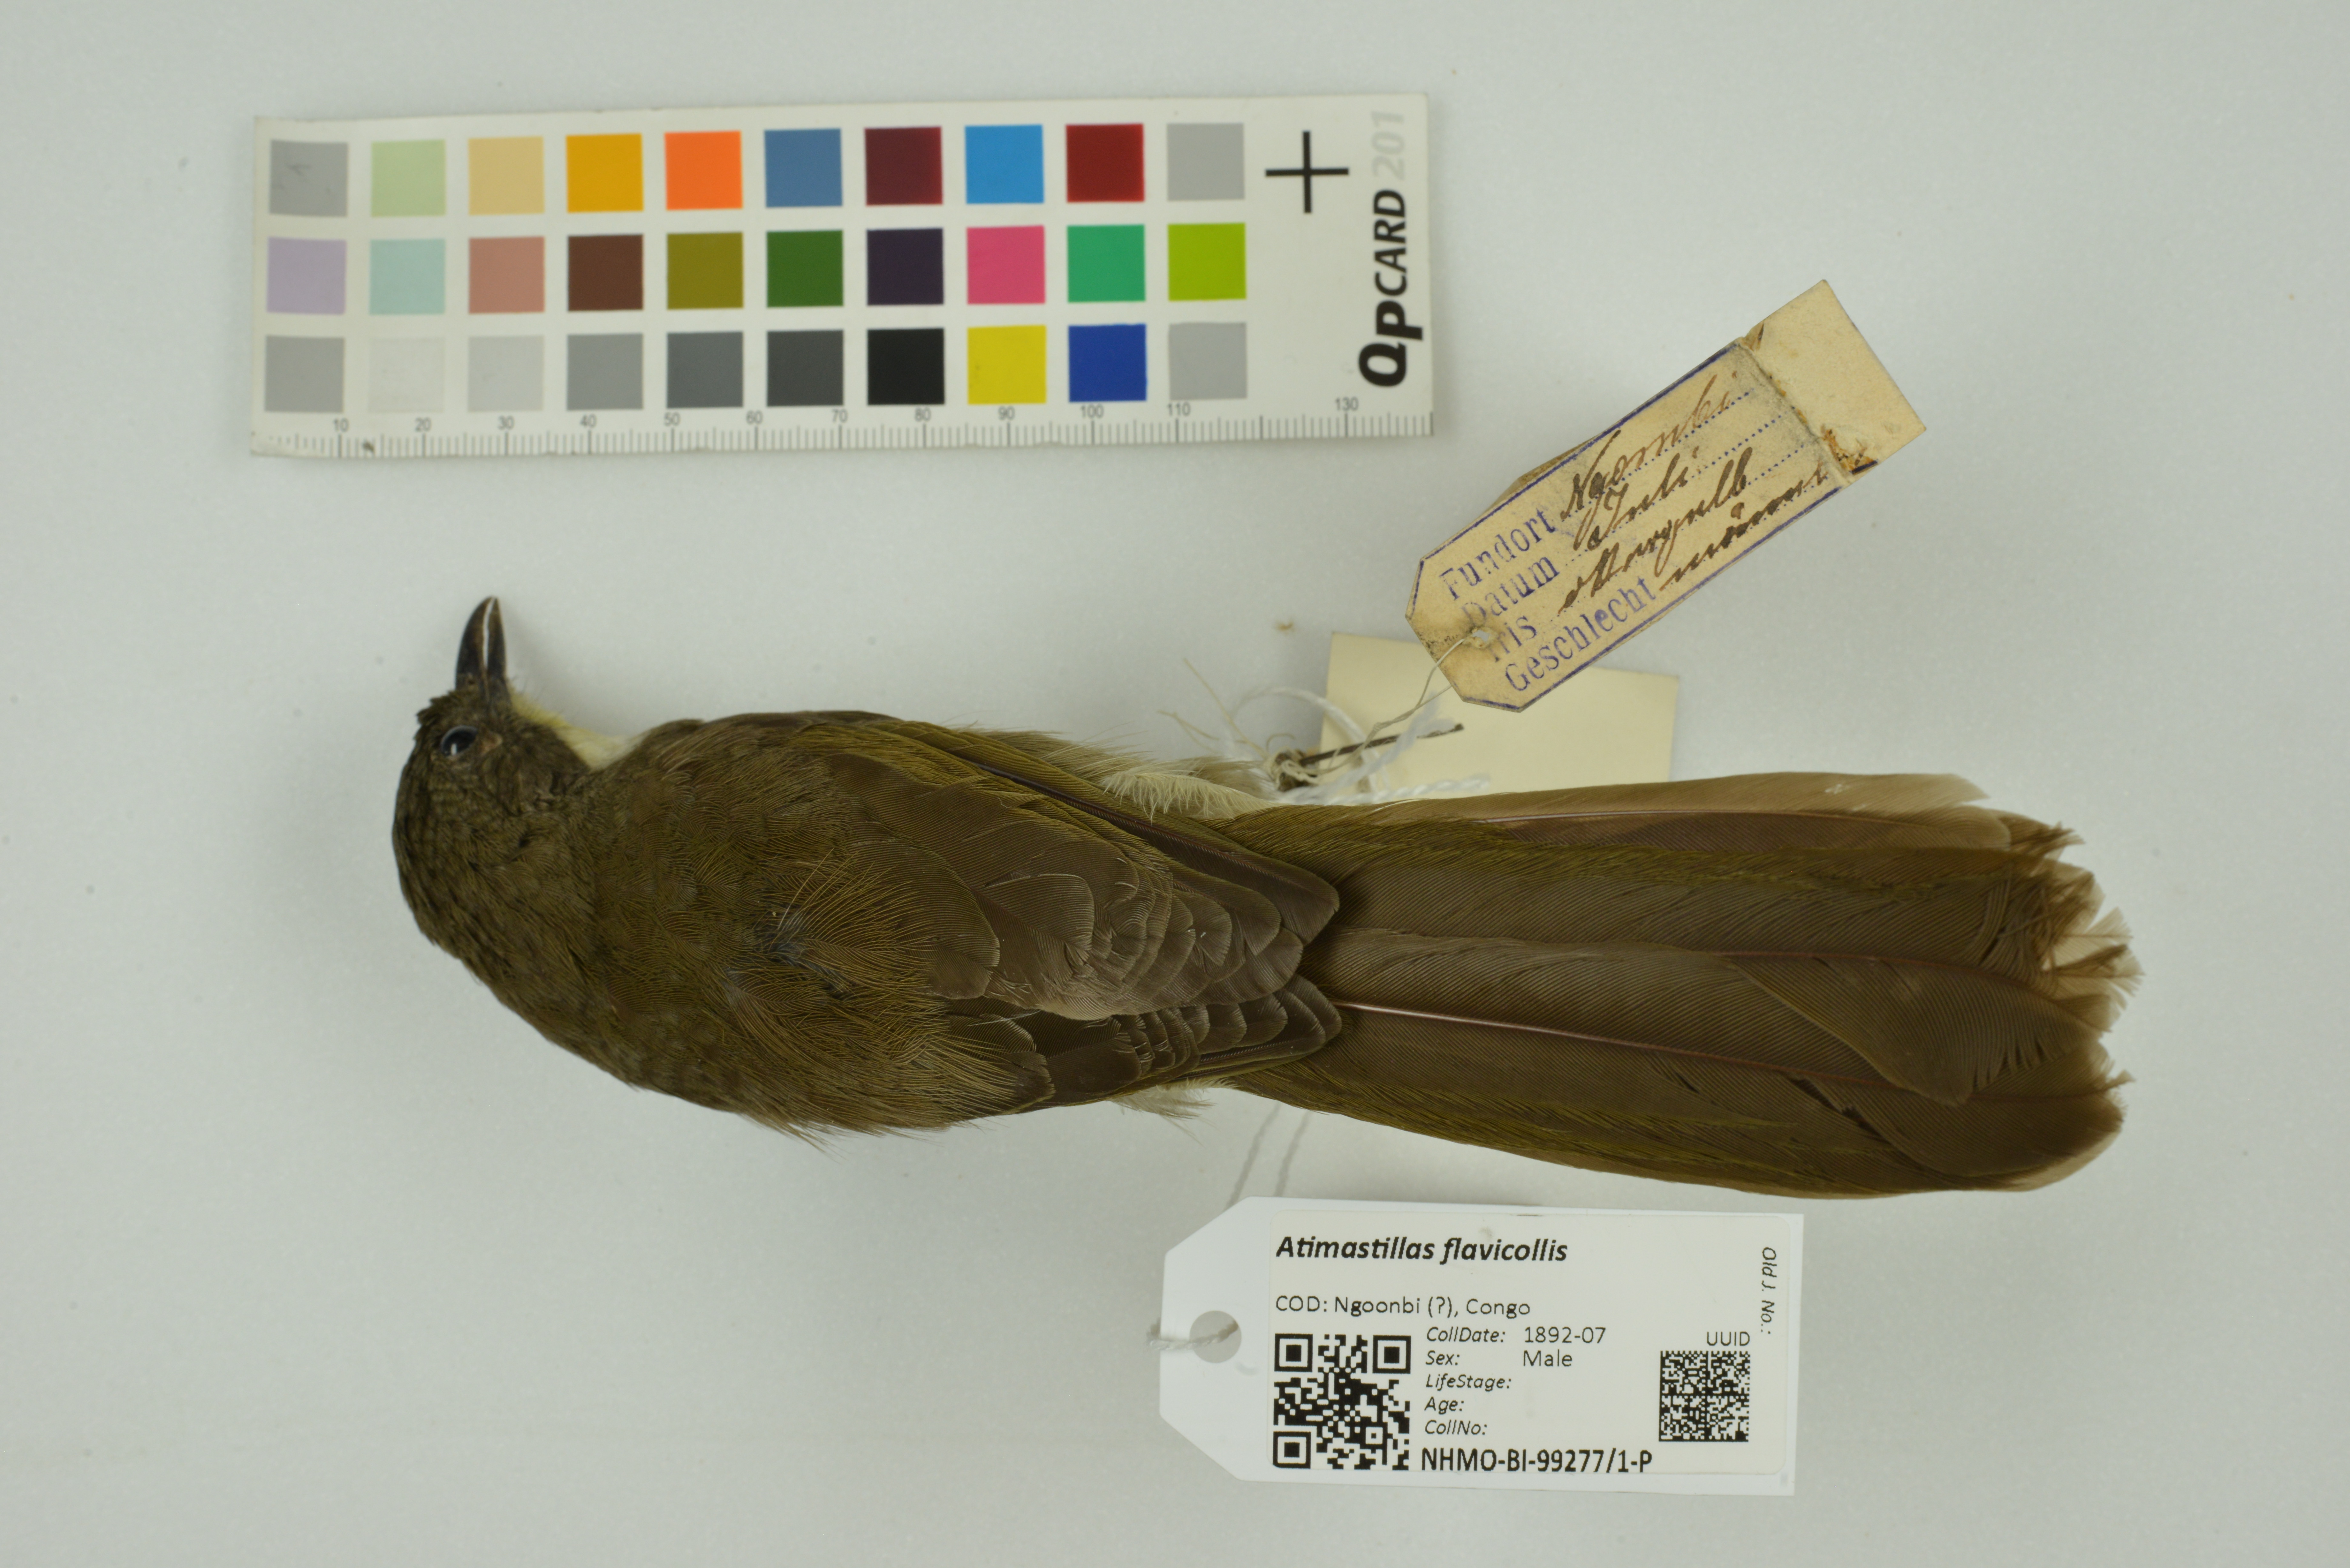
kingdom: Animalia
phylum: Chordata
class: Aves
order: Passeriformes
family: Pycnonotidae
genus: Atimastillas
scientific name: Atimastillas flavicollis
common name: Yellow-throated leaflove
